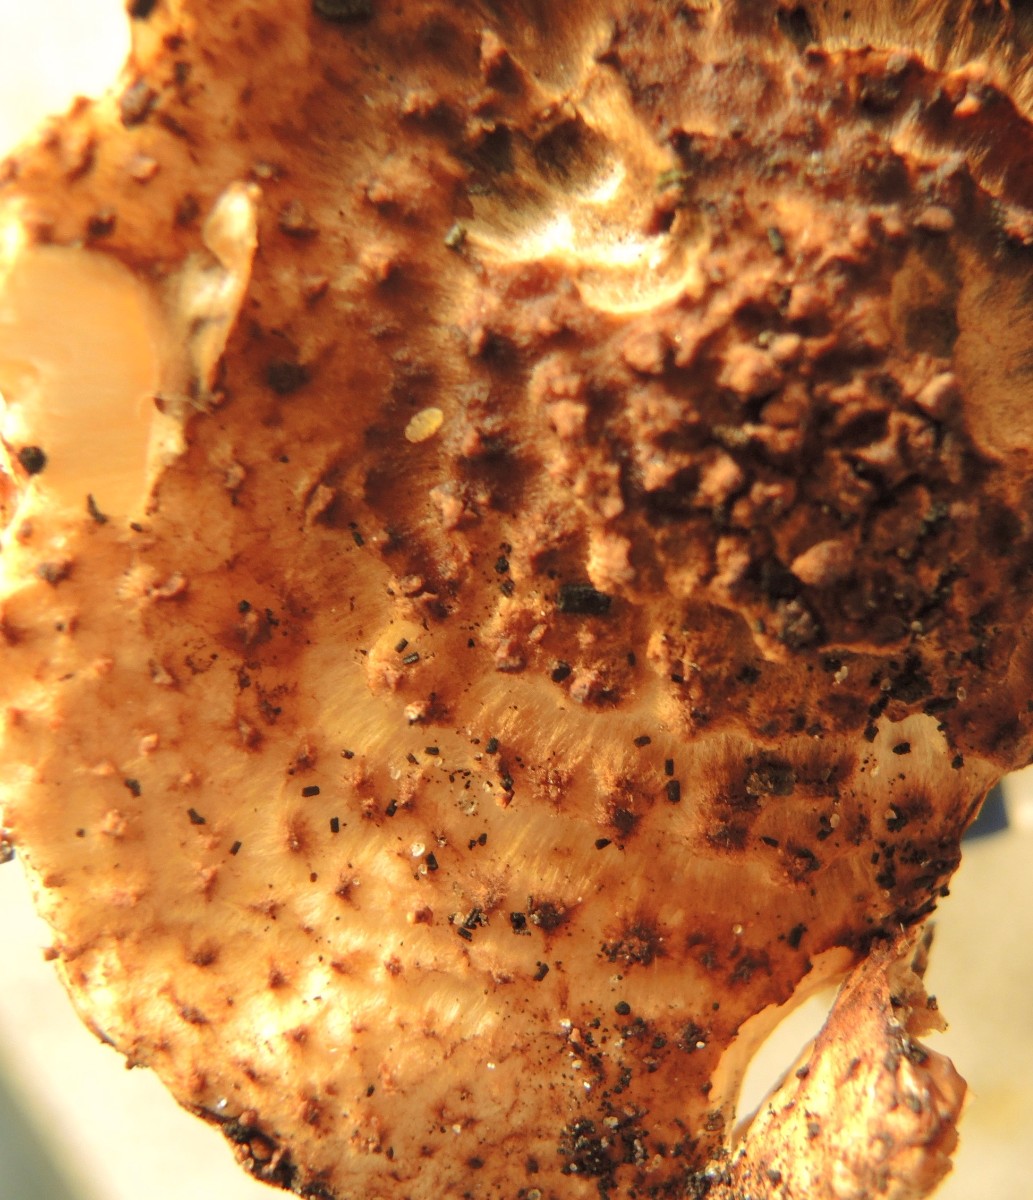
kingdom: Fungi
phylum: Basidiomycota
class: Agaricomycetes
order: Agaricales
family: Agaricaceae
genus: Echinoderma
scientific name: Echinoderma perplexum
